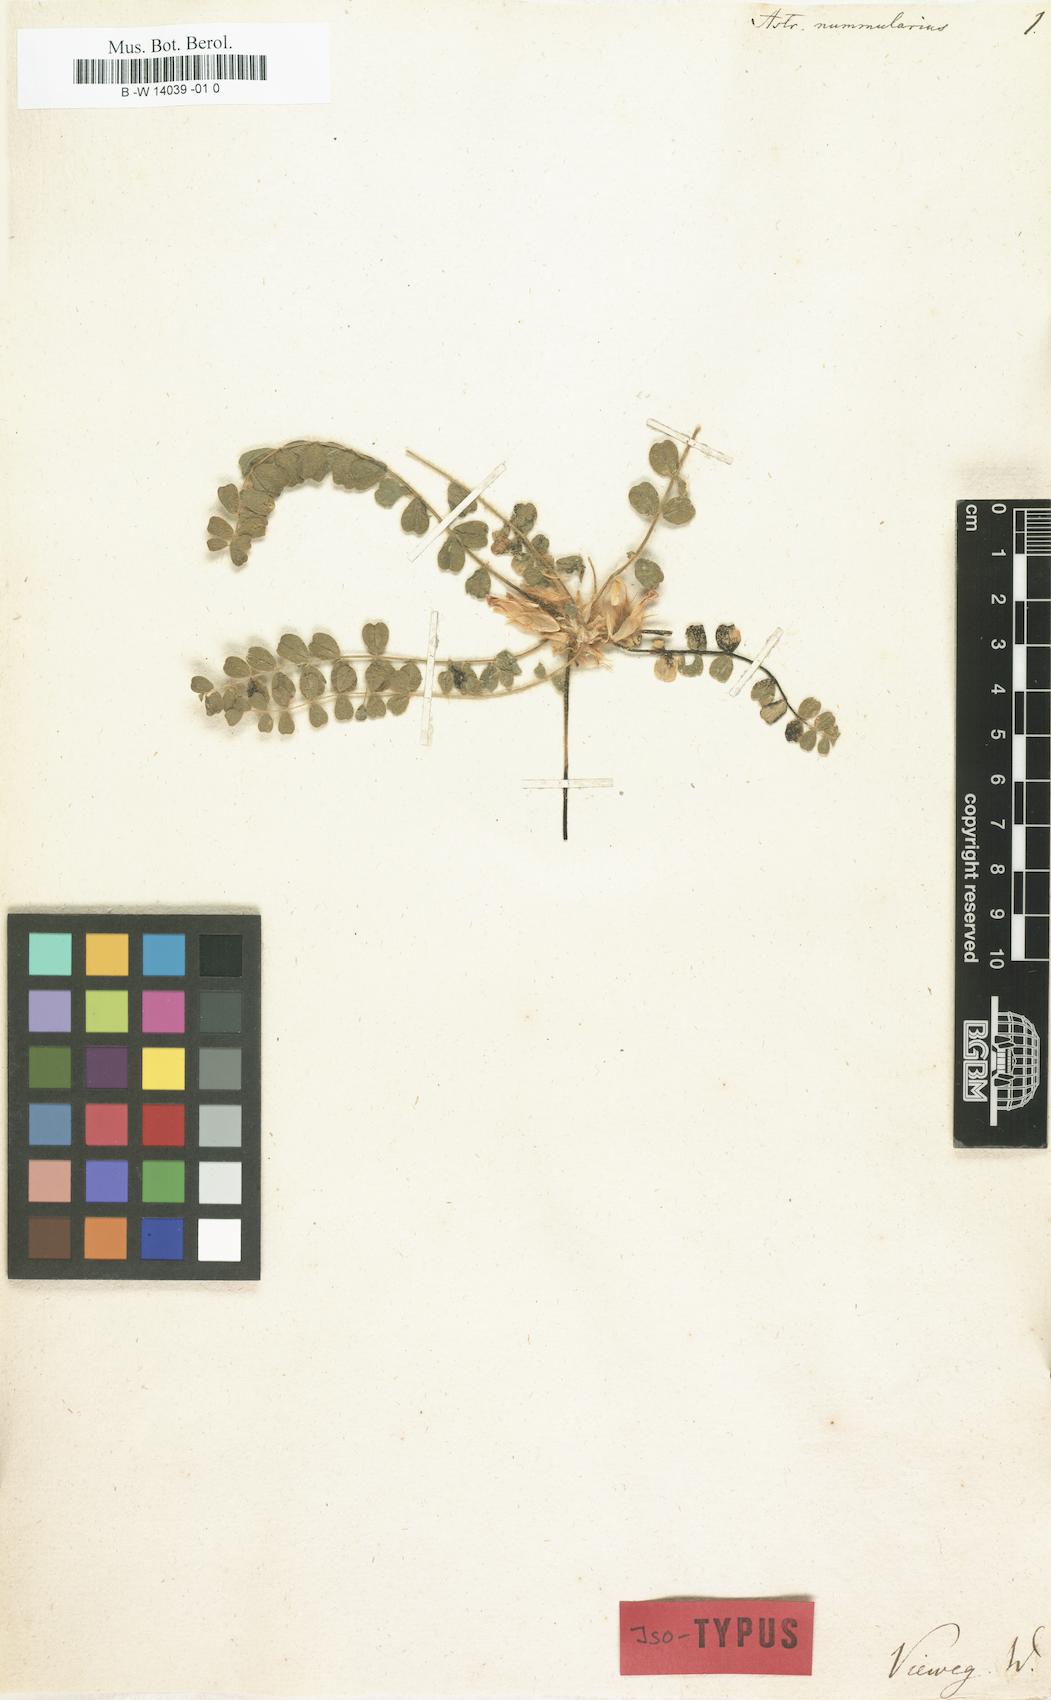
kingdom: Plantae
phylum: Tracheophyta
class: Magnoliopsida
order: Fabales
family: Fabaceae
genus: Astragalus
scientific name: Astragalus nummularius
